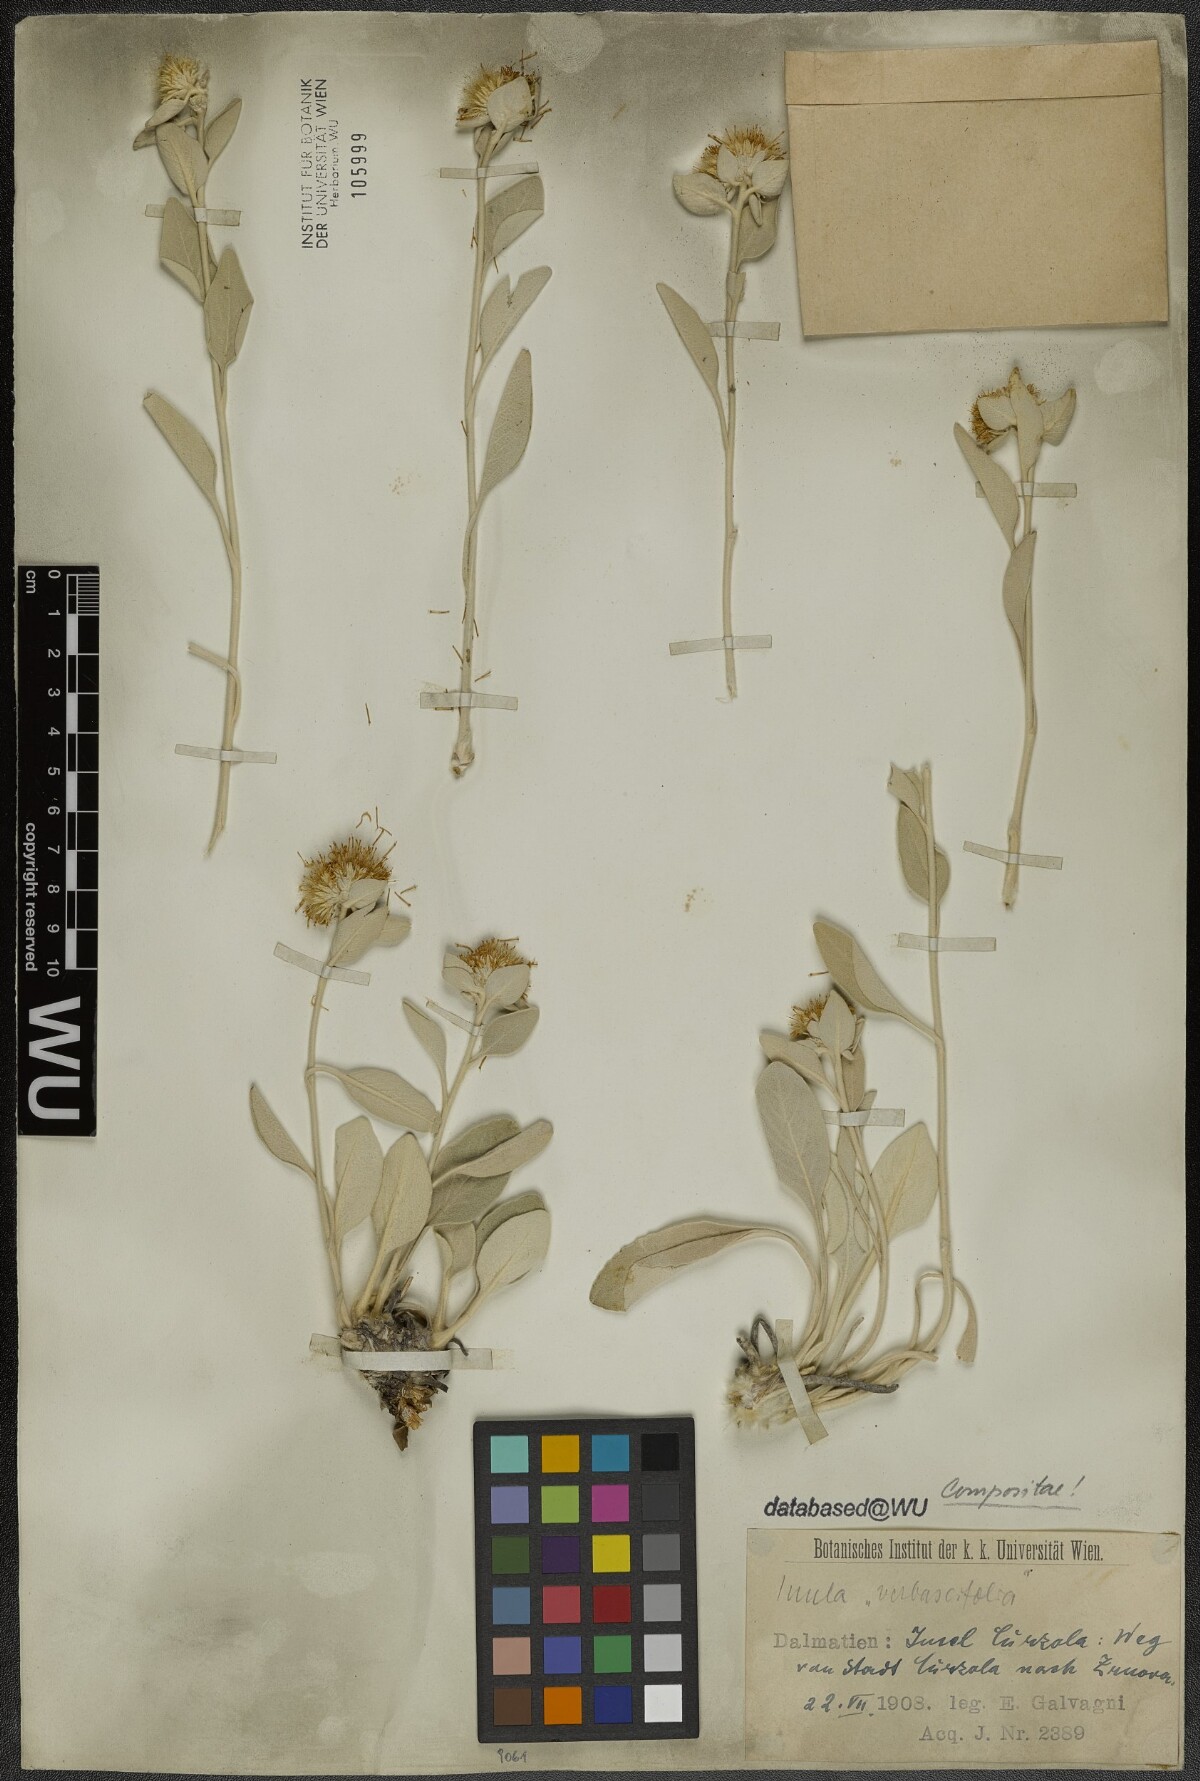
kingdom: Plantae
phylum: Tracheophyta
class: Magnoliopsida
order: Asterales
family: Asteraceae
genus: Pentanema
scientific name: Pentanema verbascifolium
